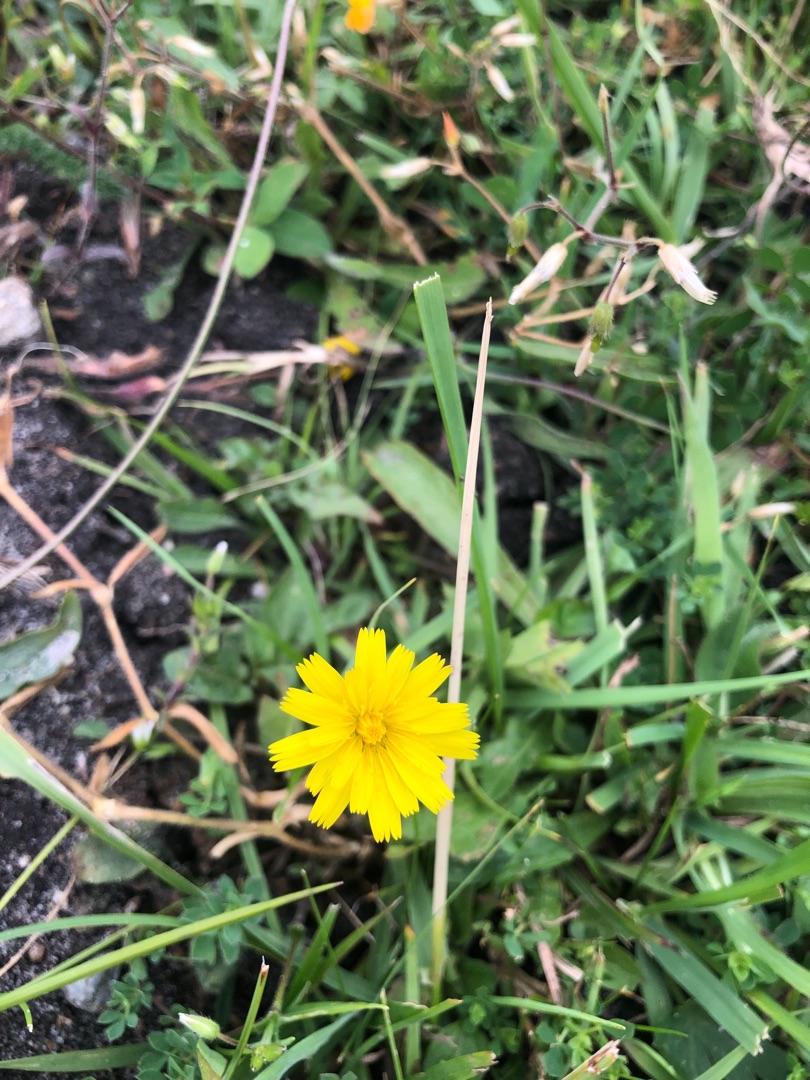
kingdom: Plantae
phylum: Tracheophyta
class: Magnoliopsida
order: Asterales
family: Asteraceae
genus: Thrincia
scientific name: Thrincia saxatilis
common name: Hundesalat
